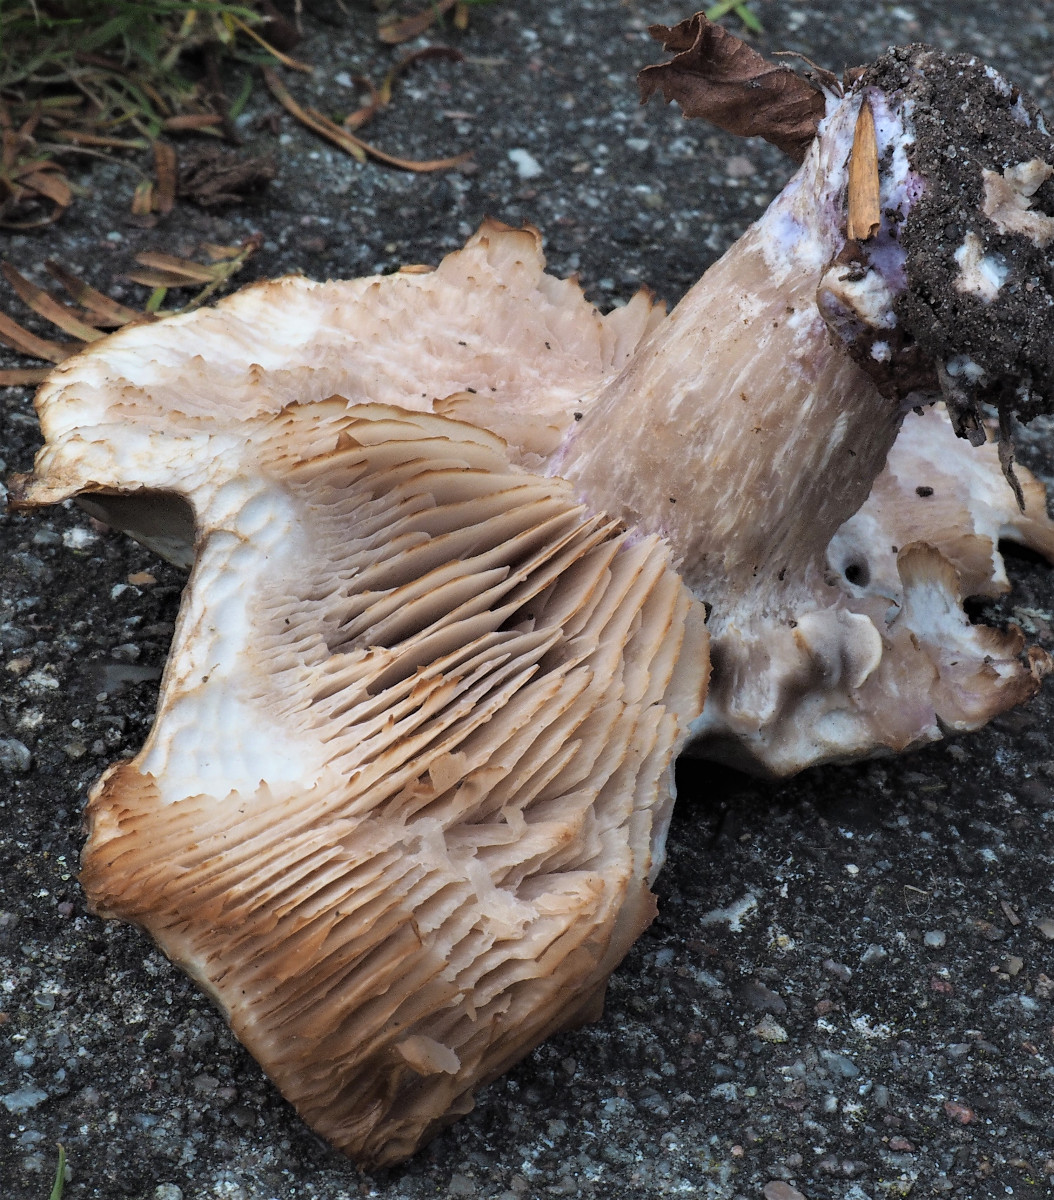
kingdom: Fungi
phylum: Basidiomycota
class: Agaricomycetes
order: Agaricales
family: Tricholomataceae
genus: Lepista
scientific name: Lepista personata
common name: bleg hekseringshat
